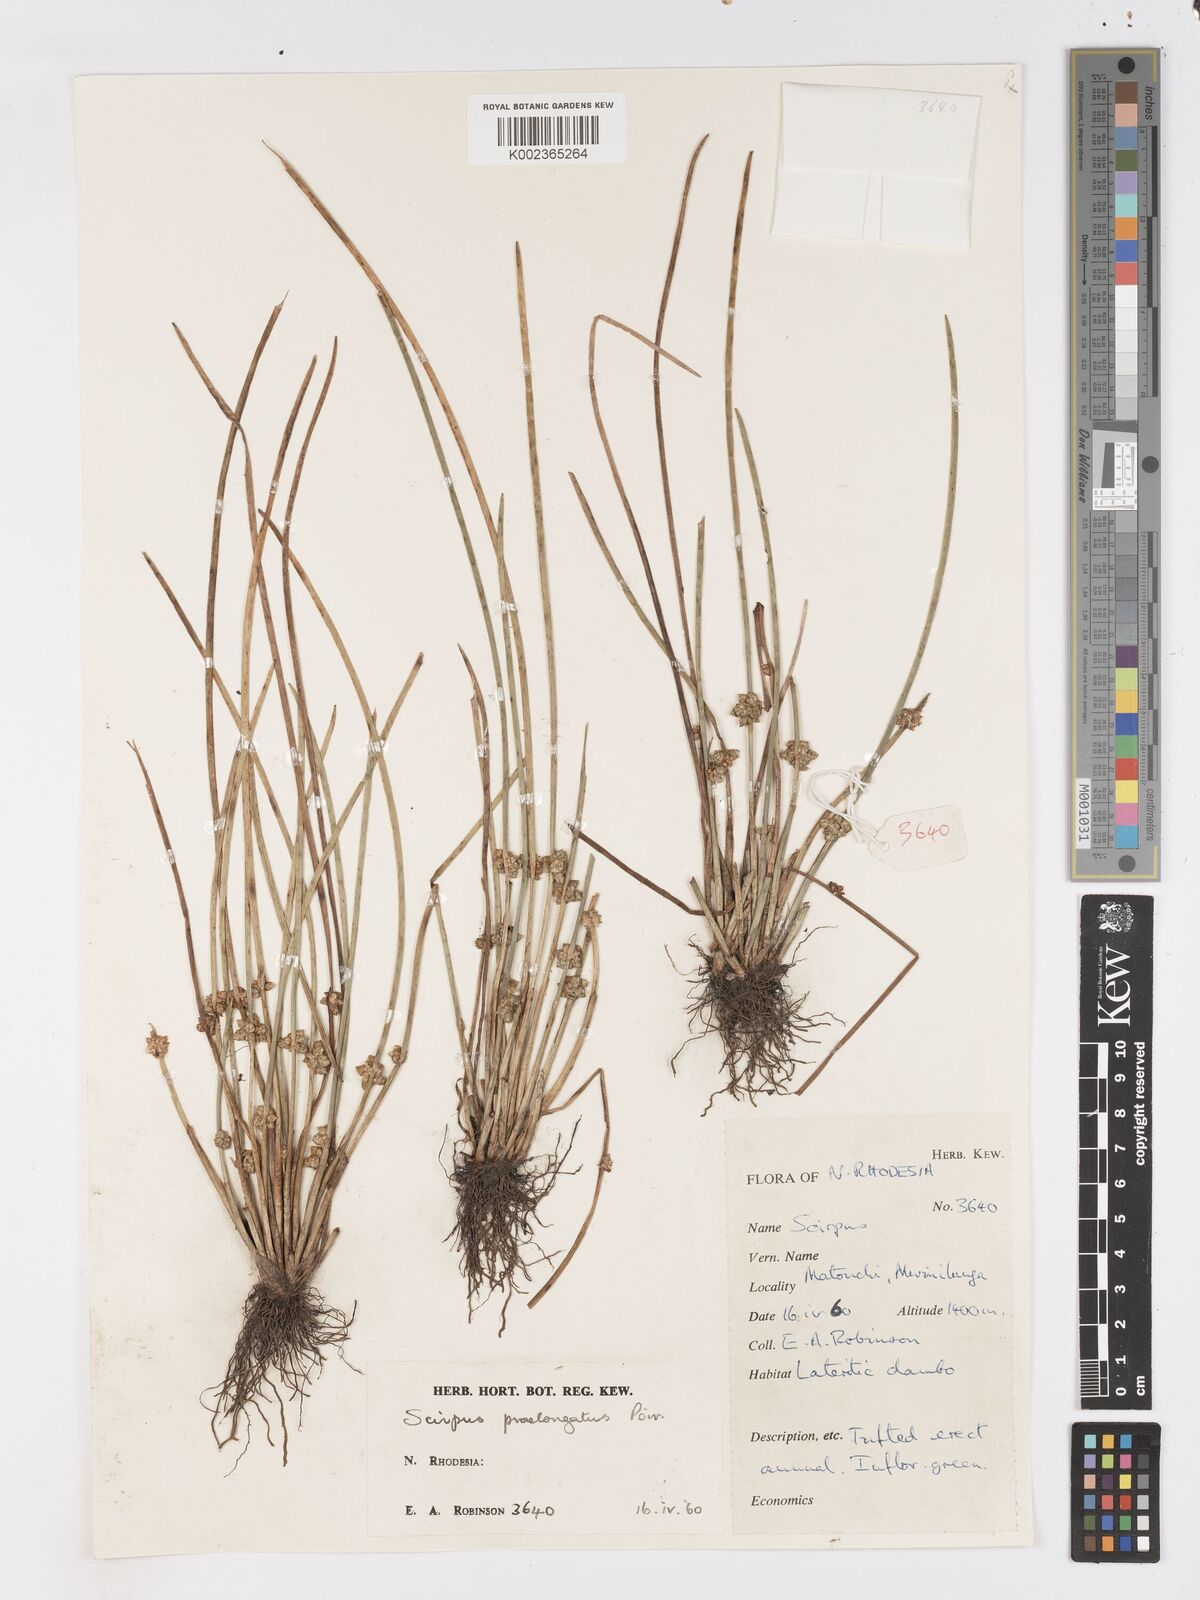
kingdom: Plantae
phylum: Tracheophyta
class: Liliopsida
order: Poales
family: Cyperaceae
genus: Schoenoplectiella
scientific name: Schoenoplectiella senegalensis
